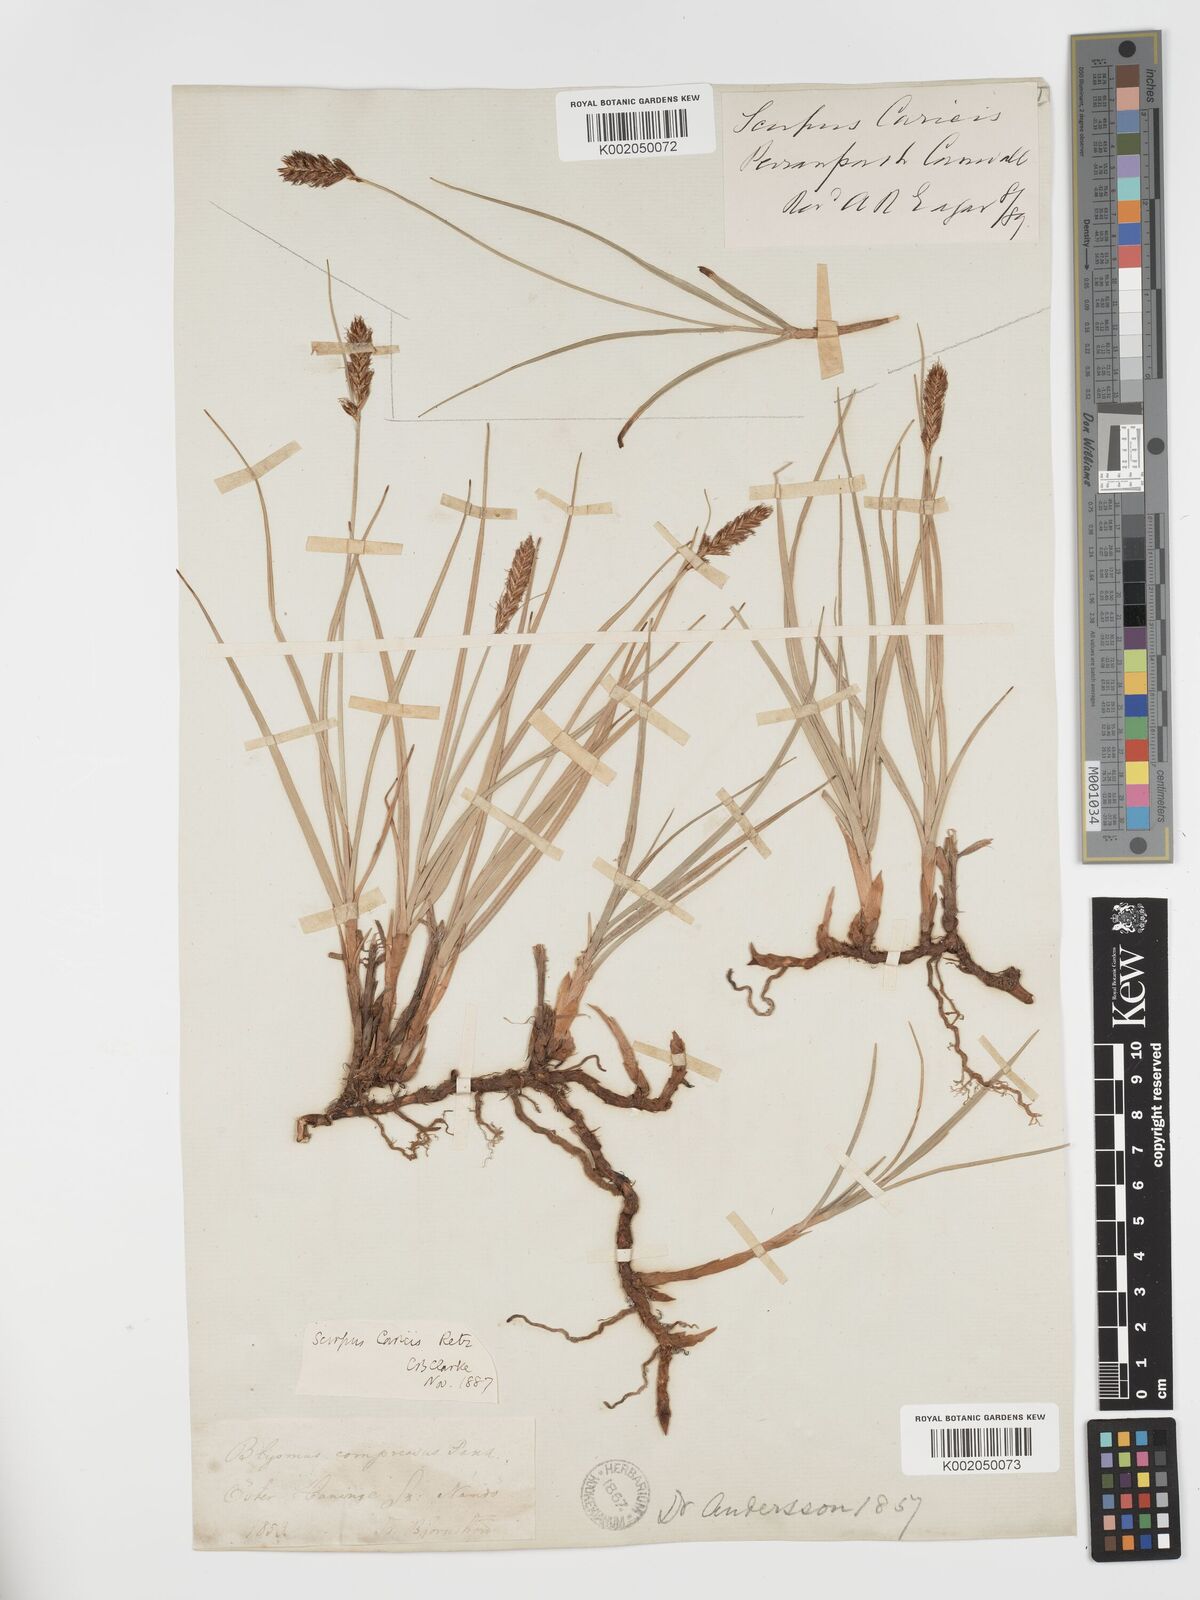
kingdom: Plantae
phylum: Tracheophyta
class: Liliopsida
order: Poales
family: Cyperaceae
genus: Blysmus
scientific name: Blysmus compressus
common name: Flat-sedge
